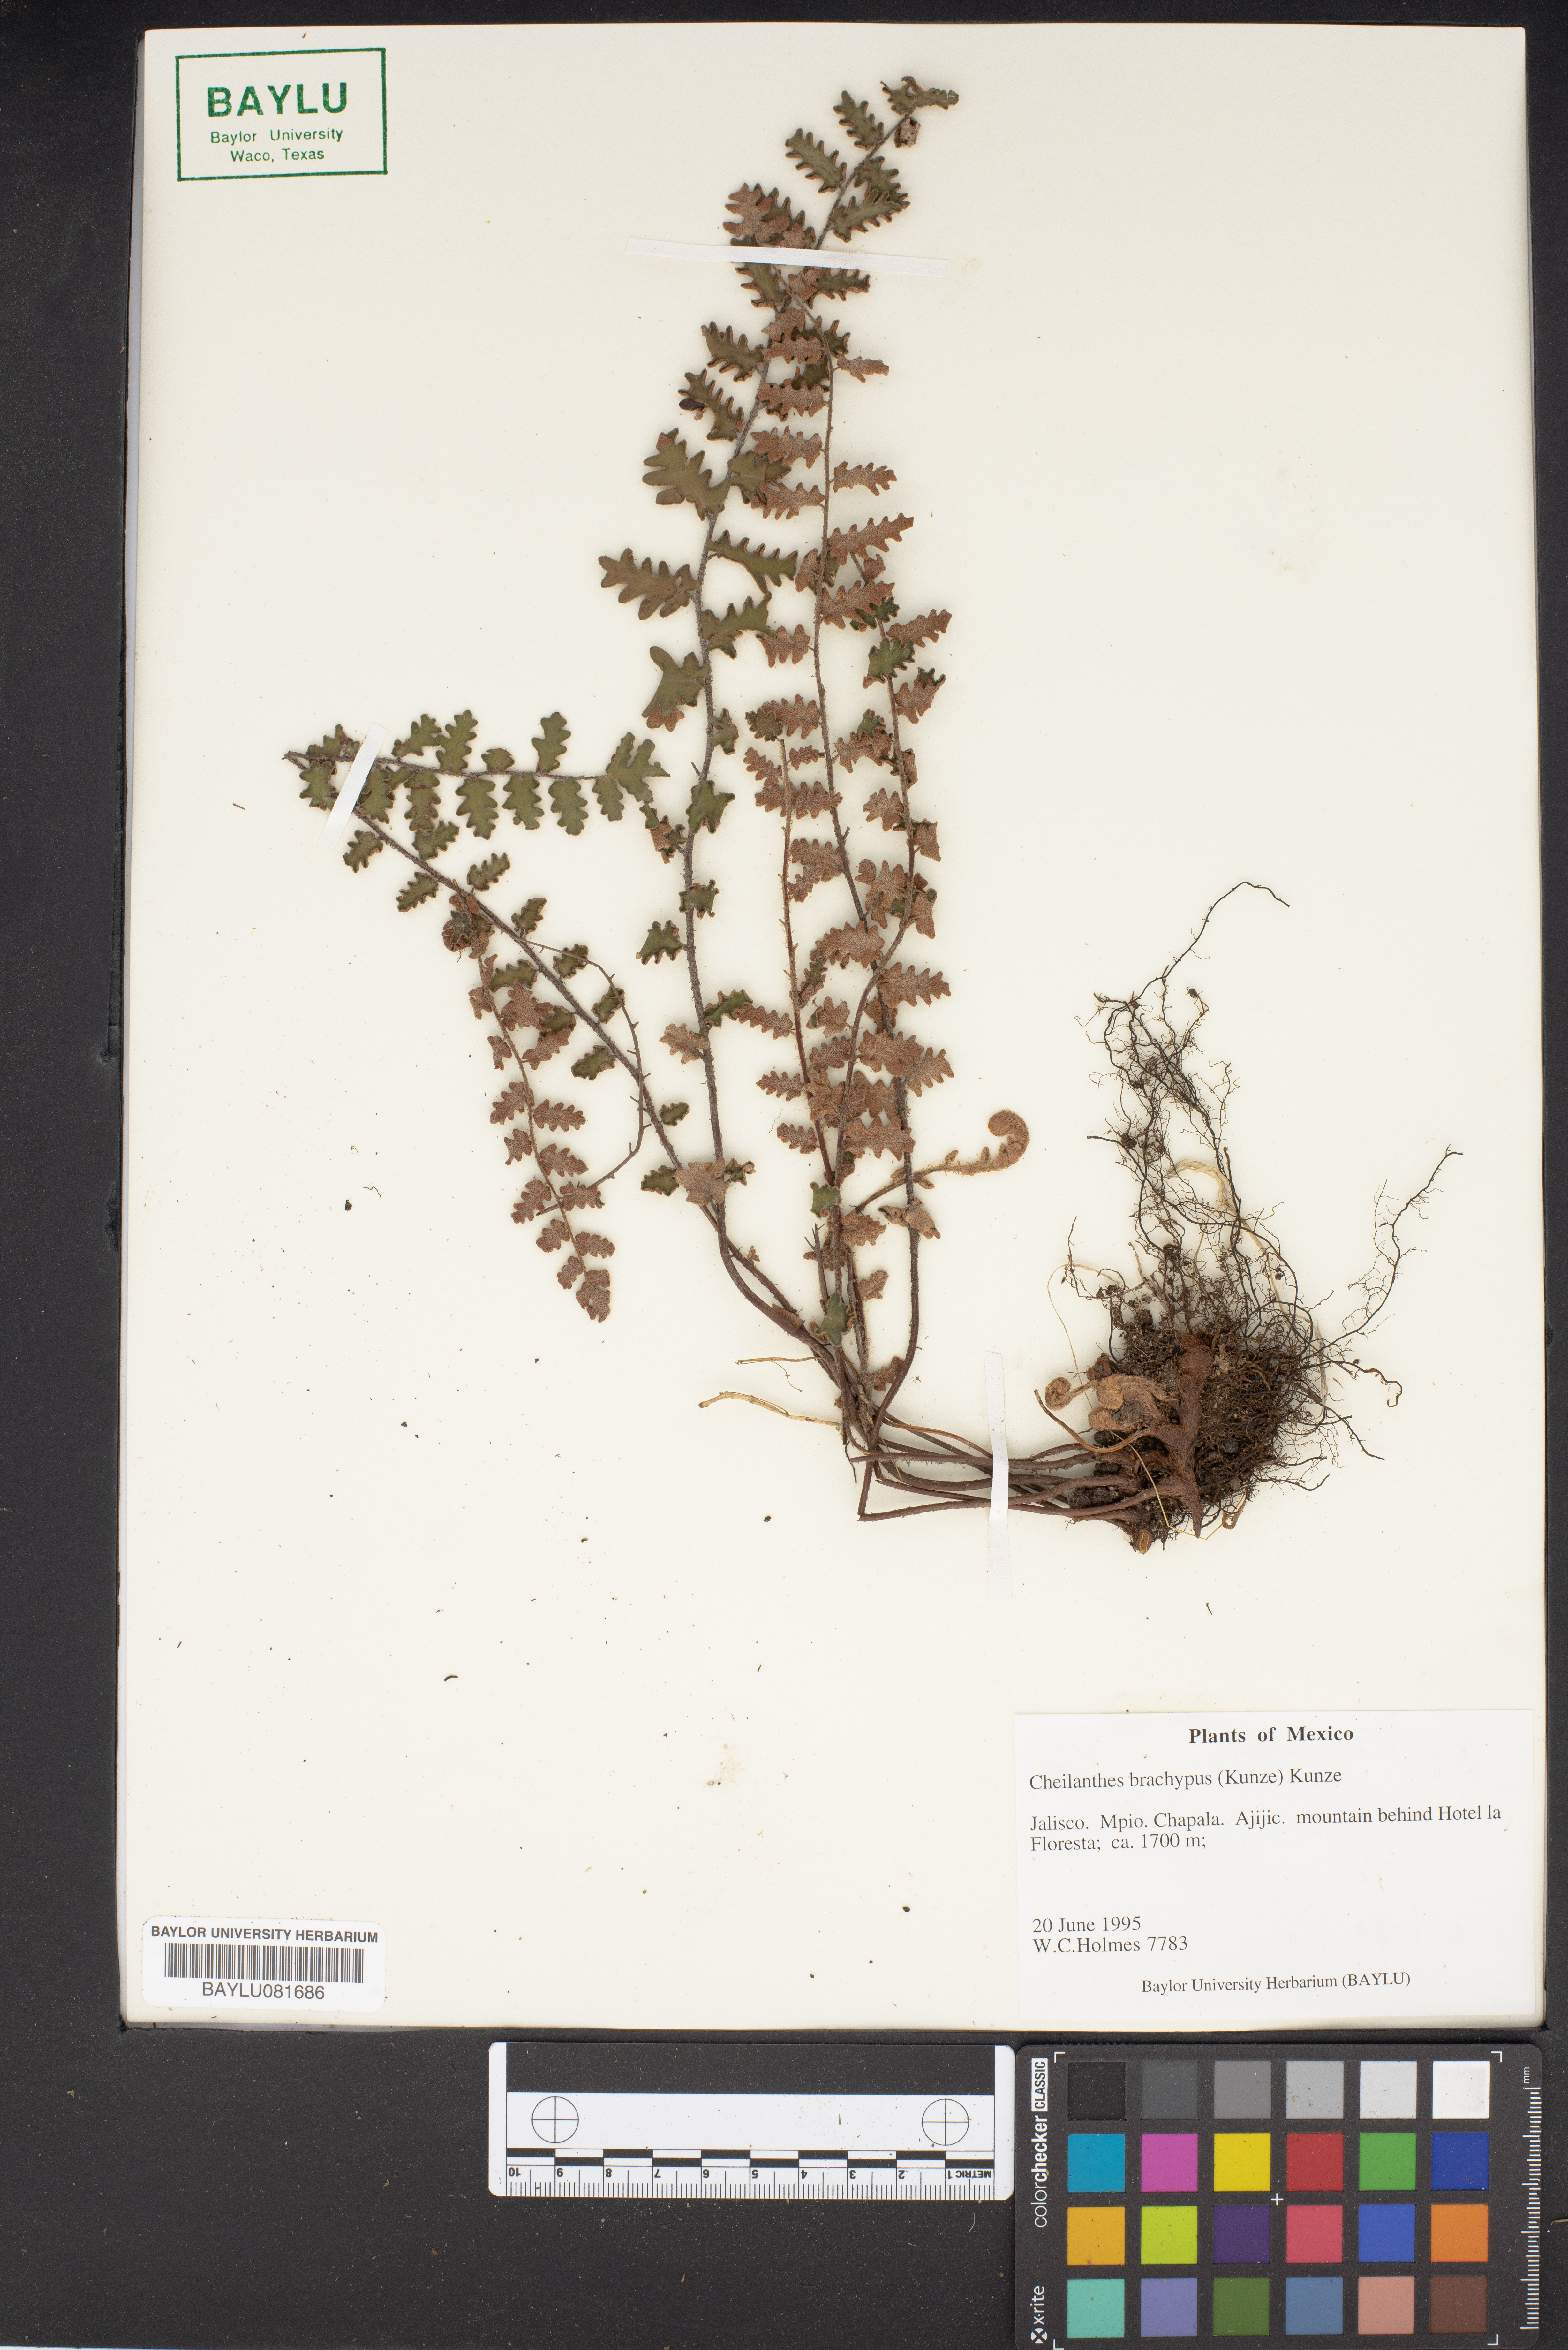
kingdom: Plantae
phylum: Tracheophyta
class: Polypodiopsida
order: Polypodiales
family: Pteridaceae
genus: Notholaena
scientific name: Notholaena brachypus
